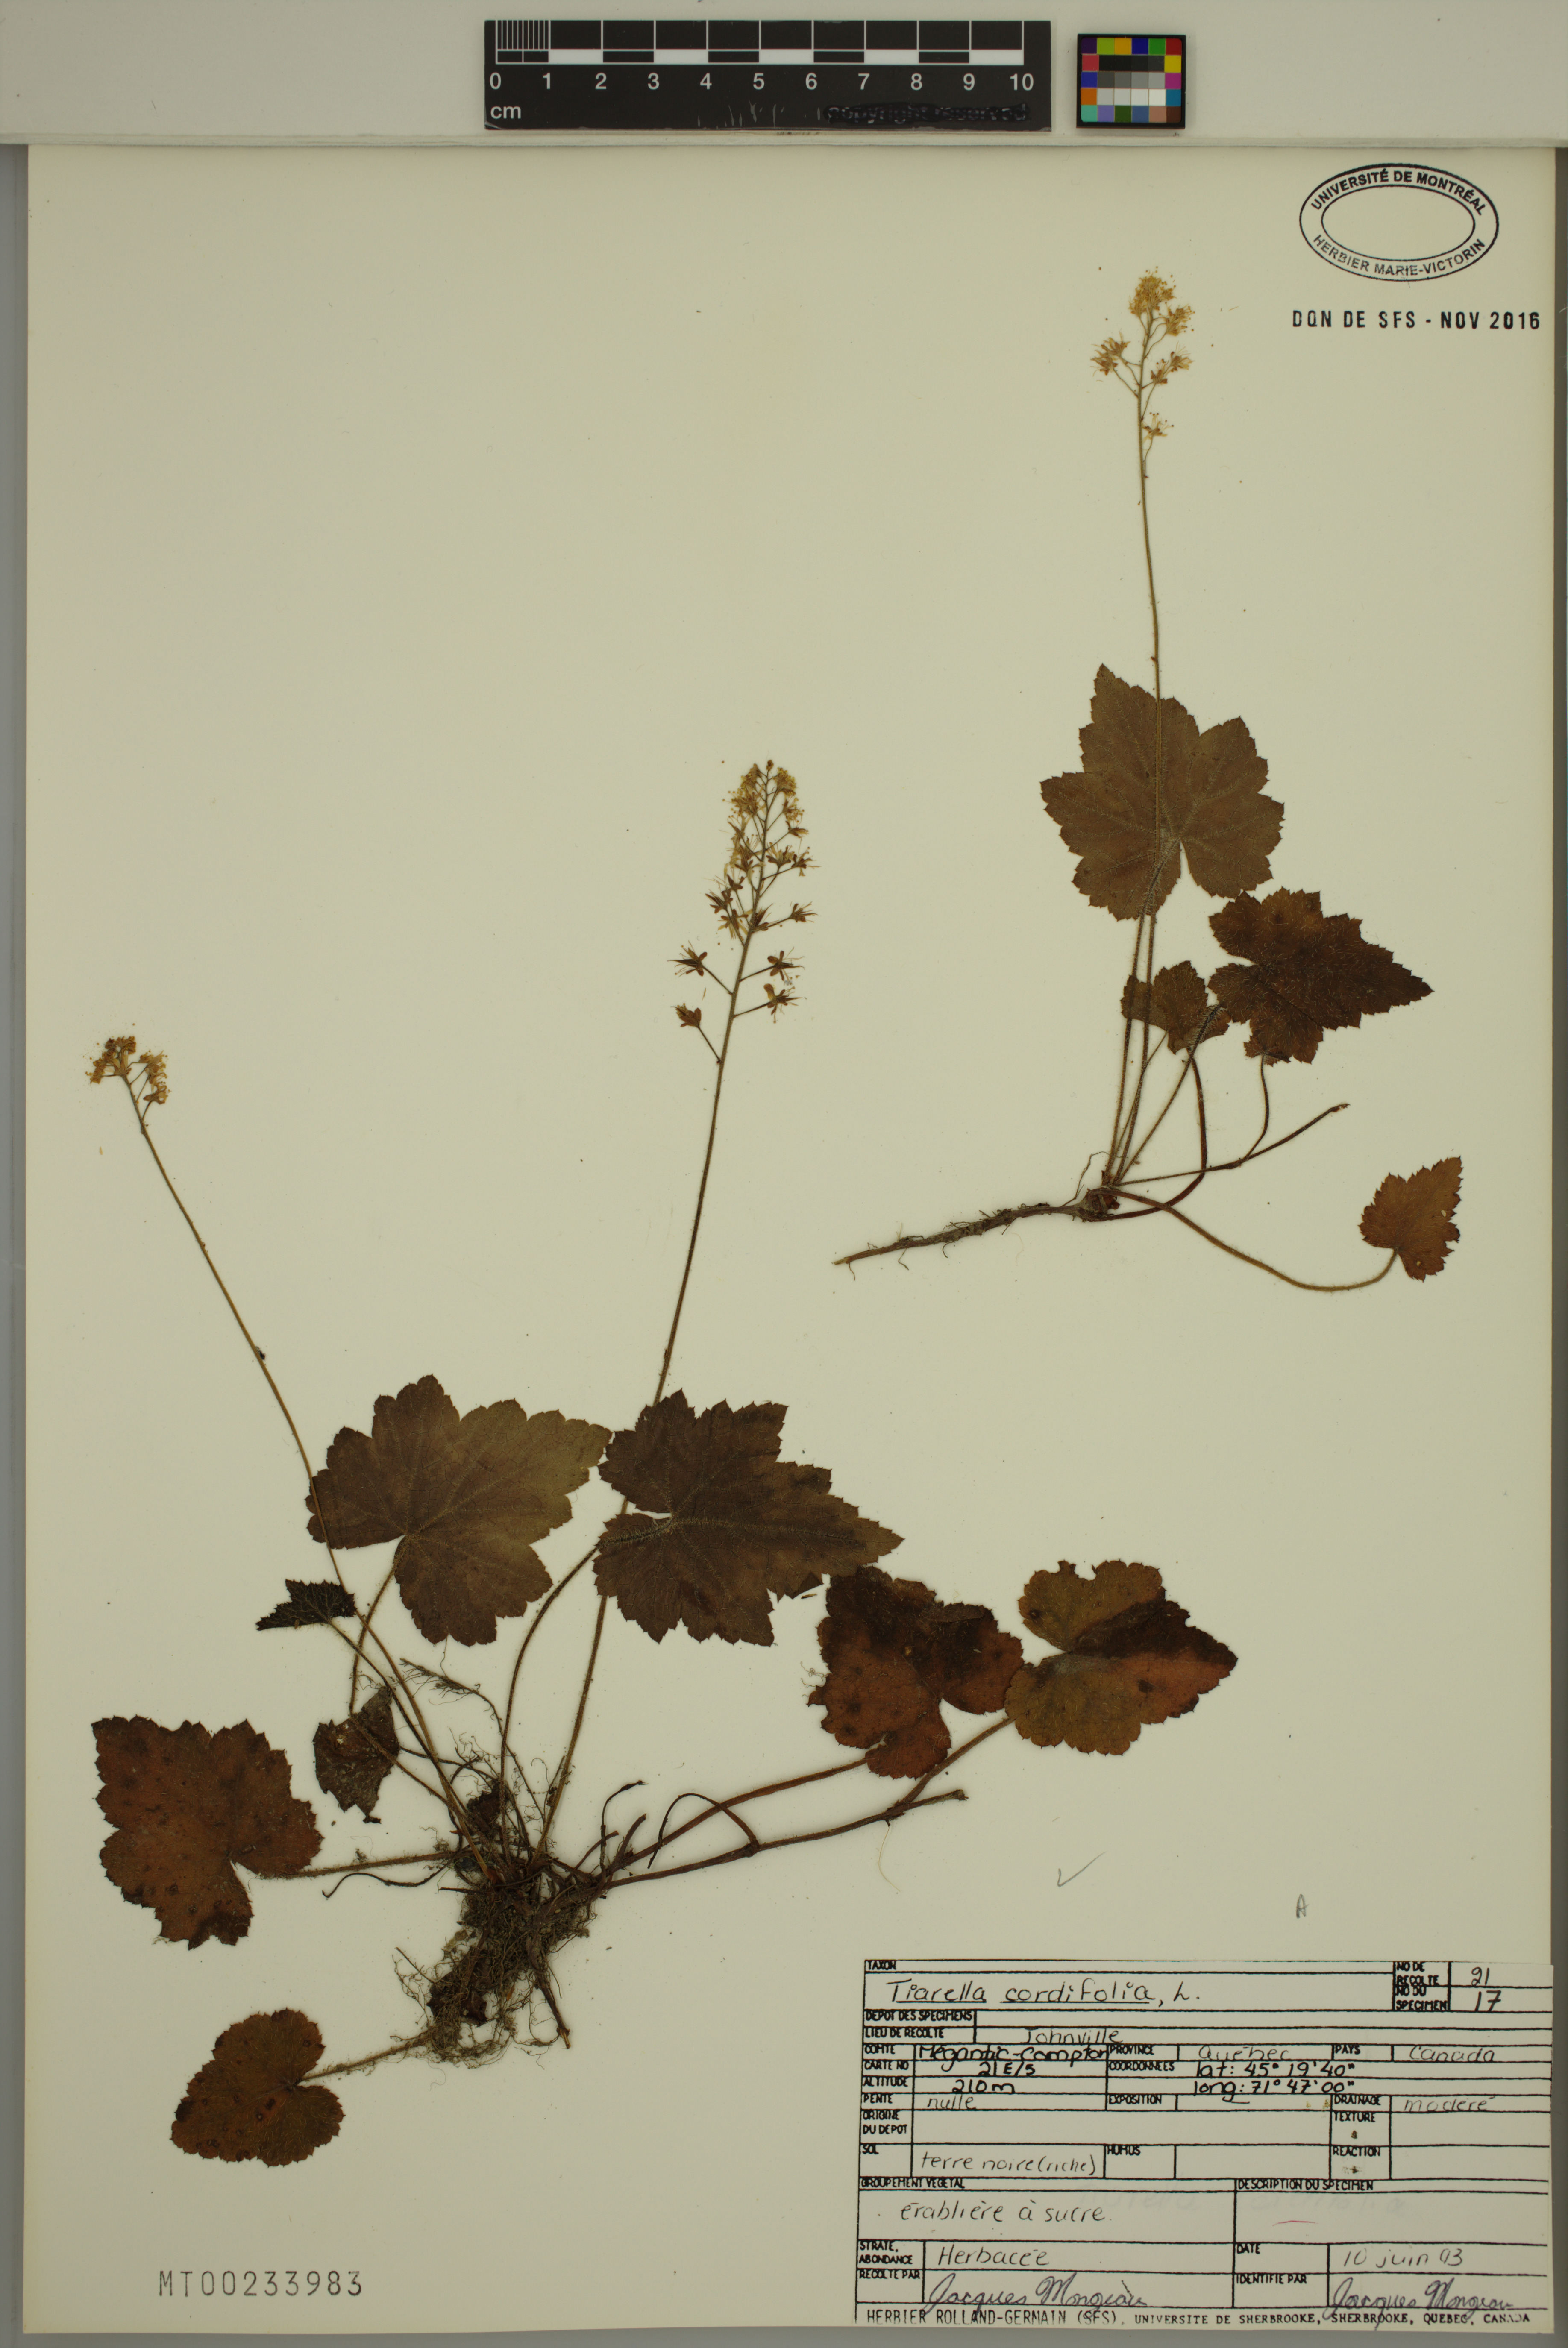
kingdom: Plantae
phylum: Tracheophyta
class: Magnoliopsida
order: Saxifragales
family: Saxifragaceae
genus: Tiarella
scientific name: Tiarella cordifolia
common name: Foamflower
